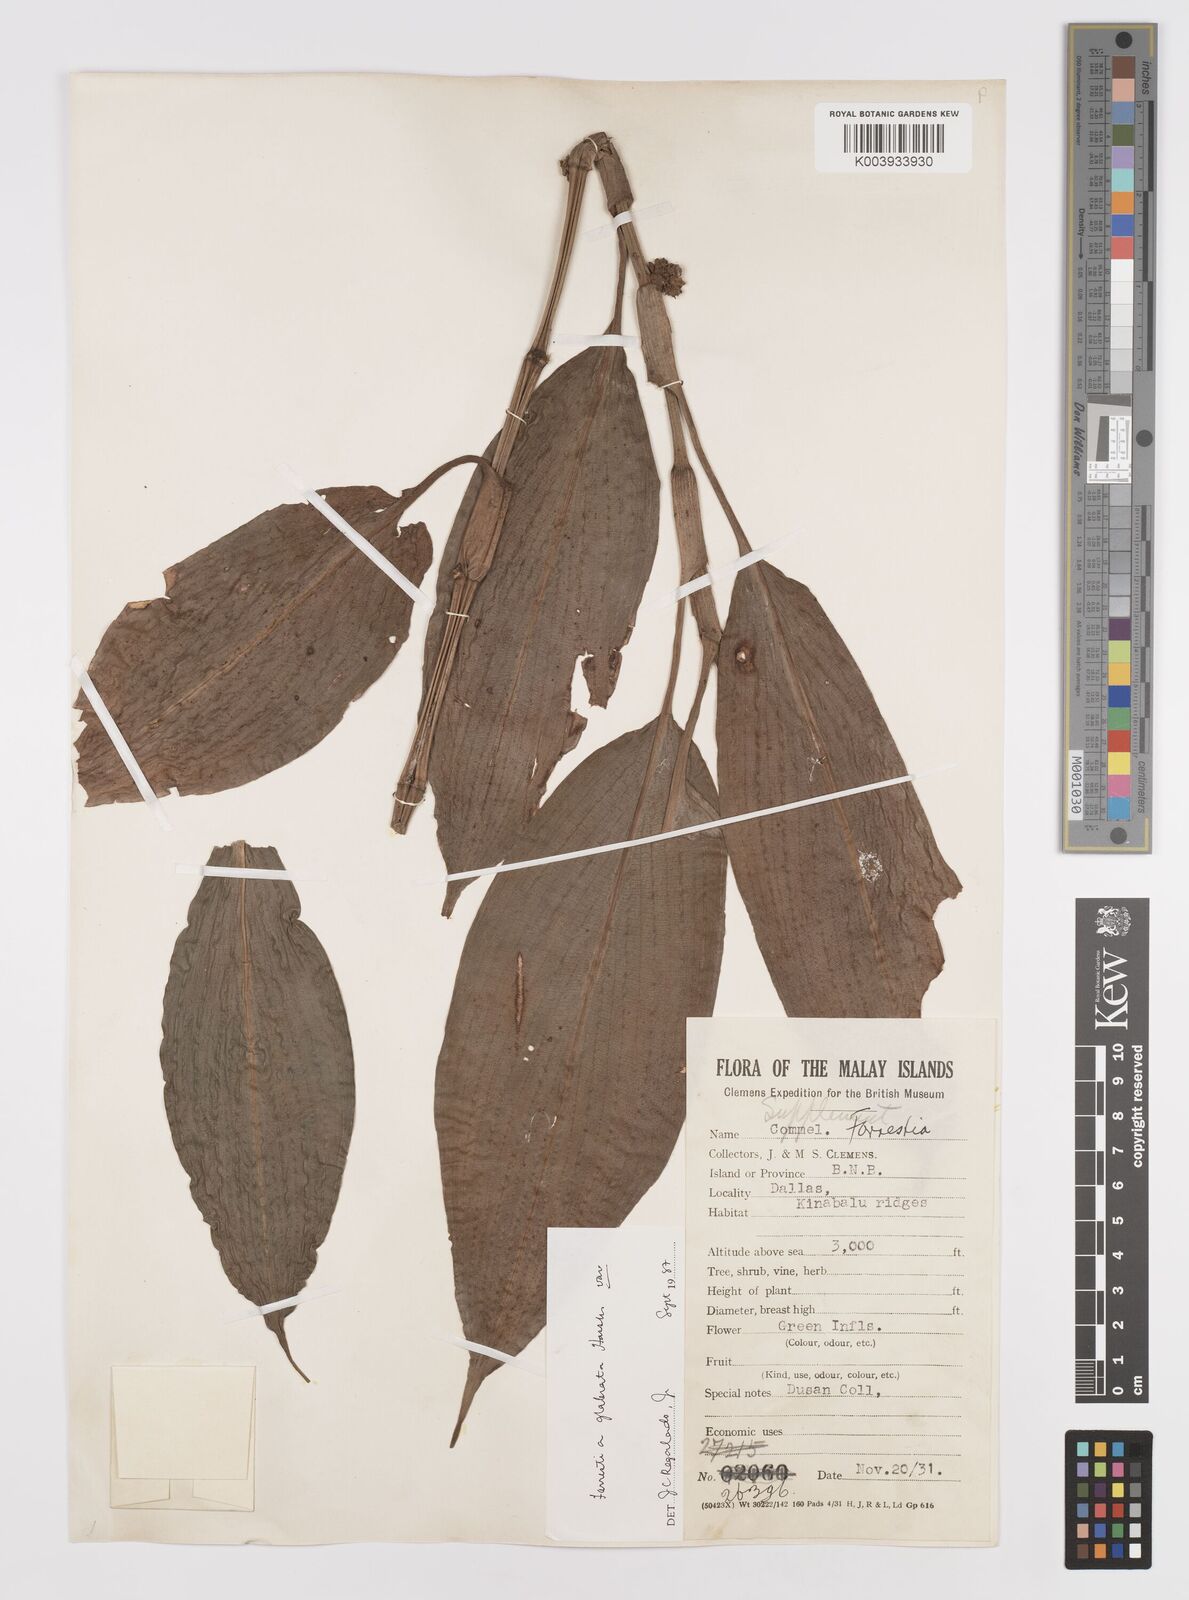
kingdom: Plantae
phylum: Tracheophyta
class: Liliopsida
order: Commelinales
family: Commelinaceae
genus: Amischotolype
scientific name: Amischotolype glabrata
